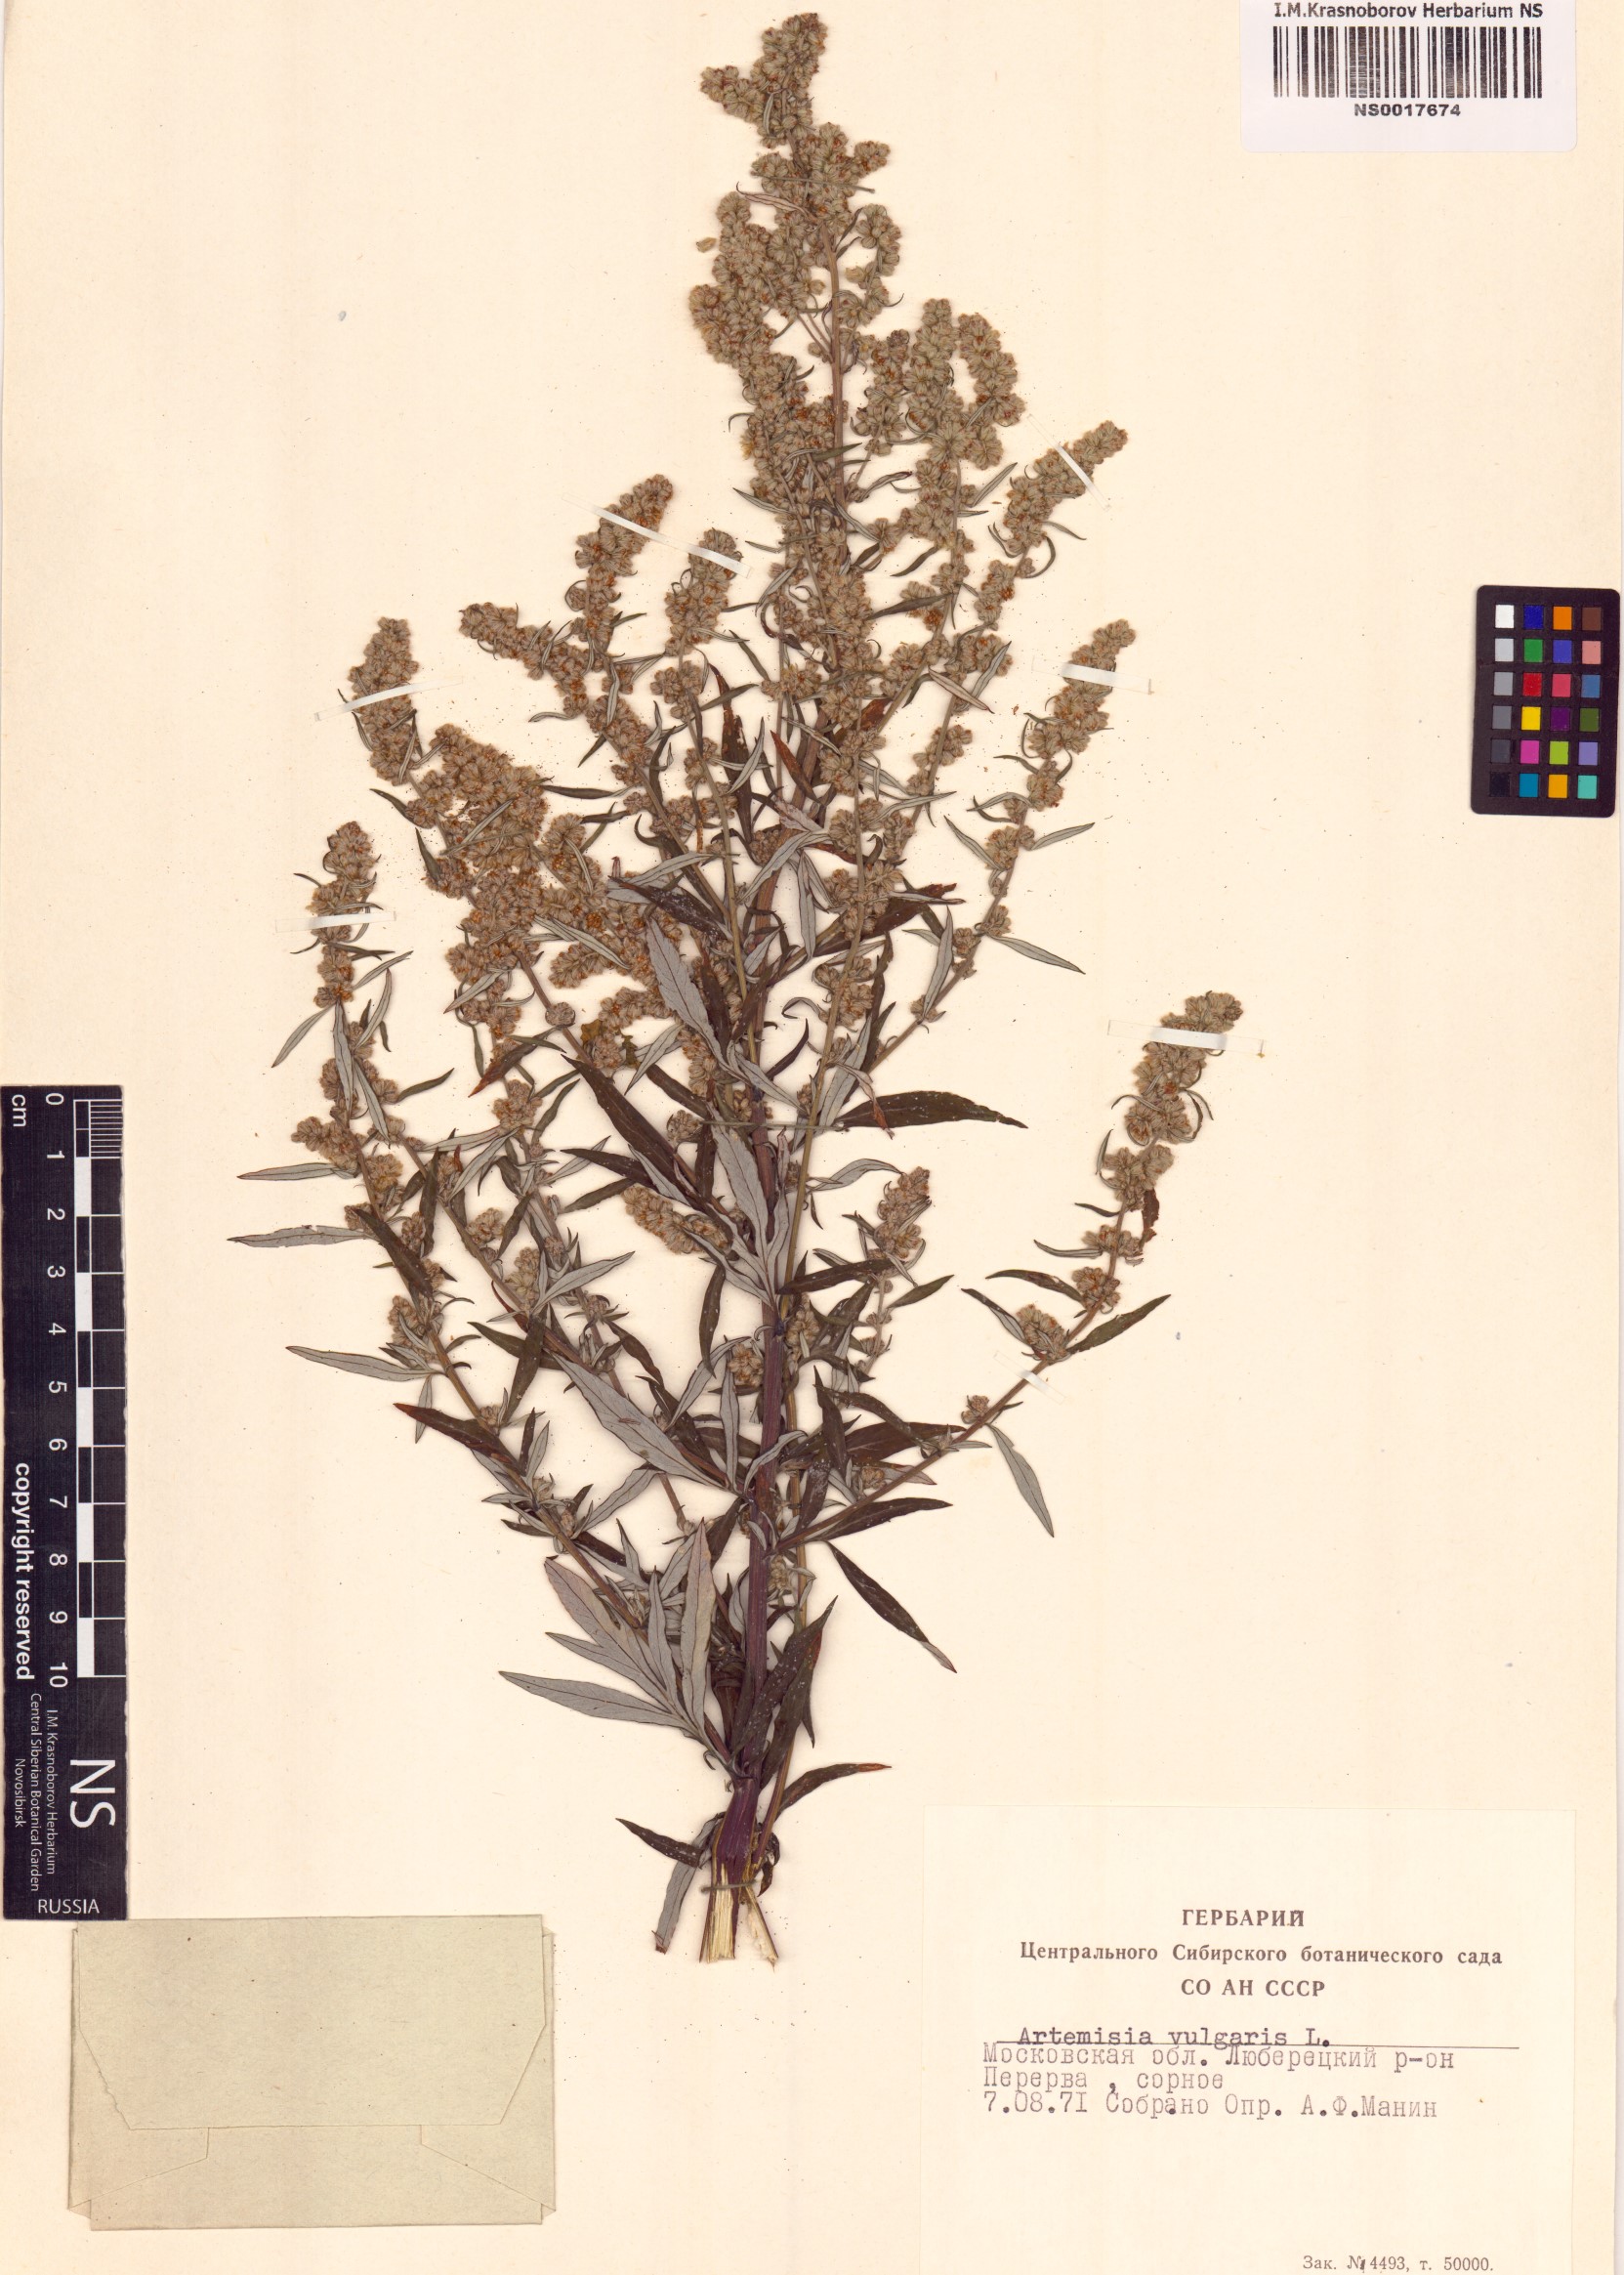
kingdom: Plantae
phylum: Tracheophyta
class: Magnoliopsida
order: Asterales
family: Asteraceae
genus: Artemisia
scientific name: Artemisia vulgaris
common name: Mugwort
